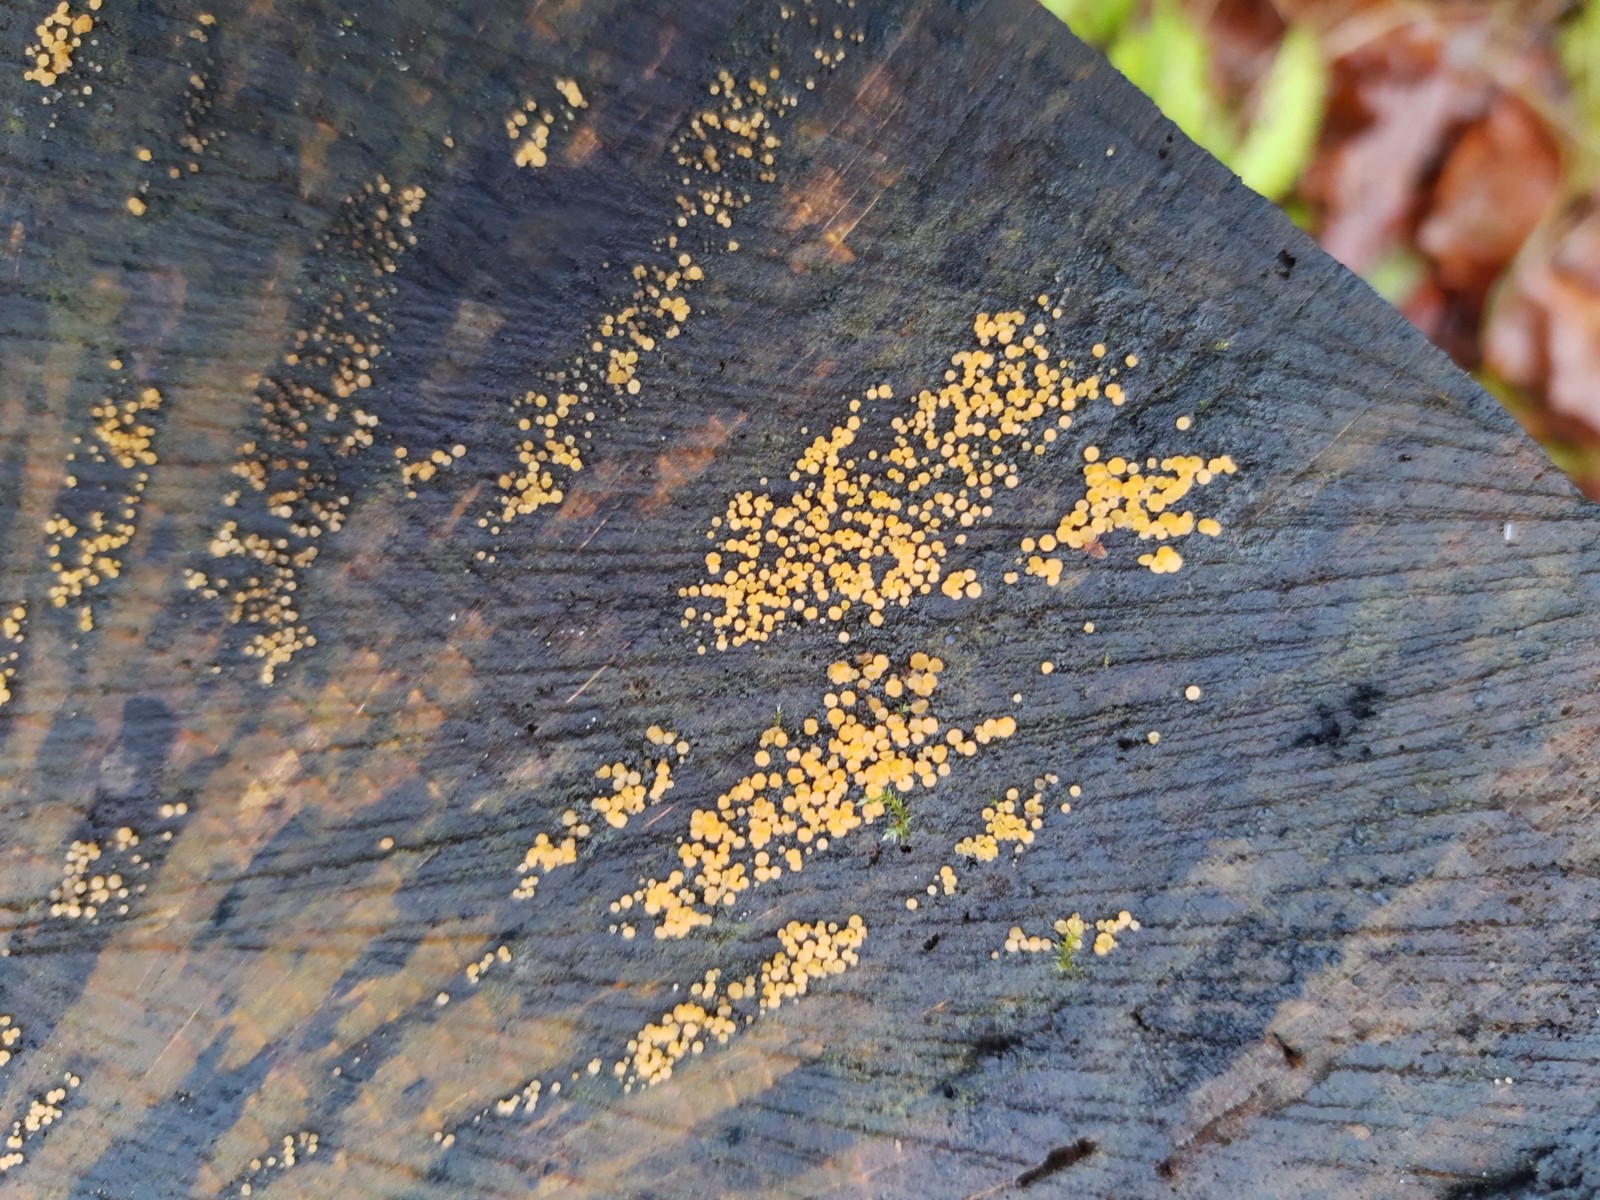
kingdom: Fungi
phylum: Ascomycota
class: Leotiomycetes
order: Helotiales
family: Helotiaceae
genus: Bispora
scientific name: Bispora pallescens
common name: måtte-snitskive
